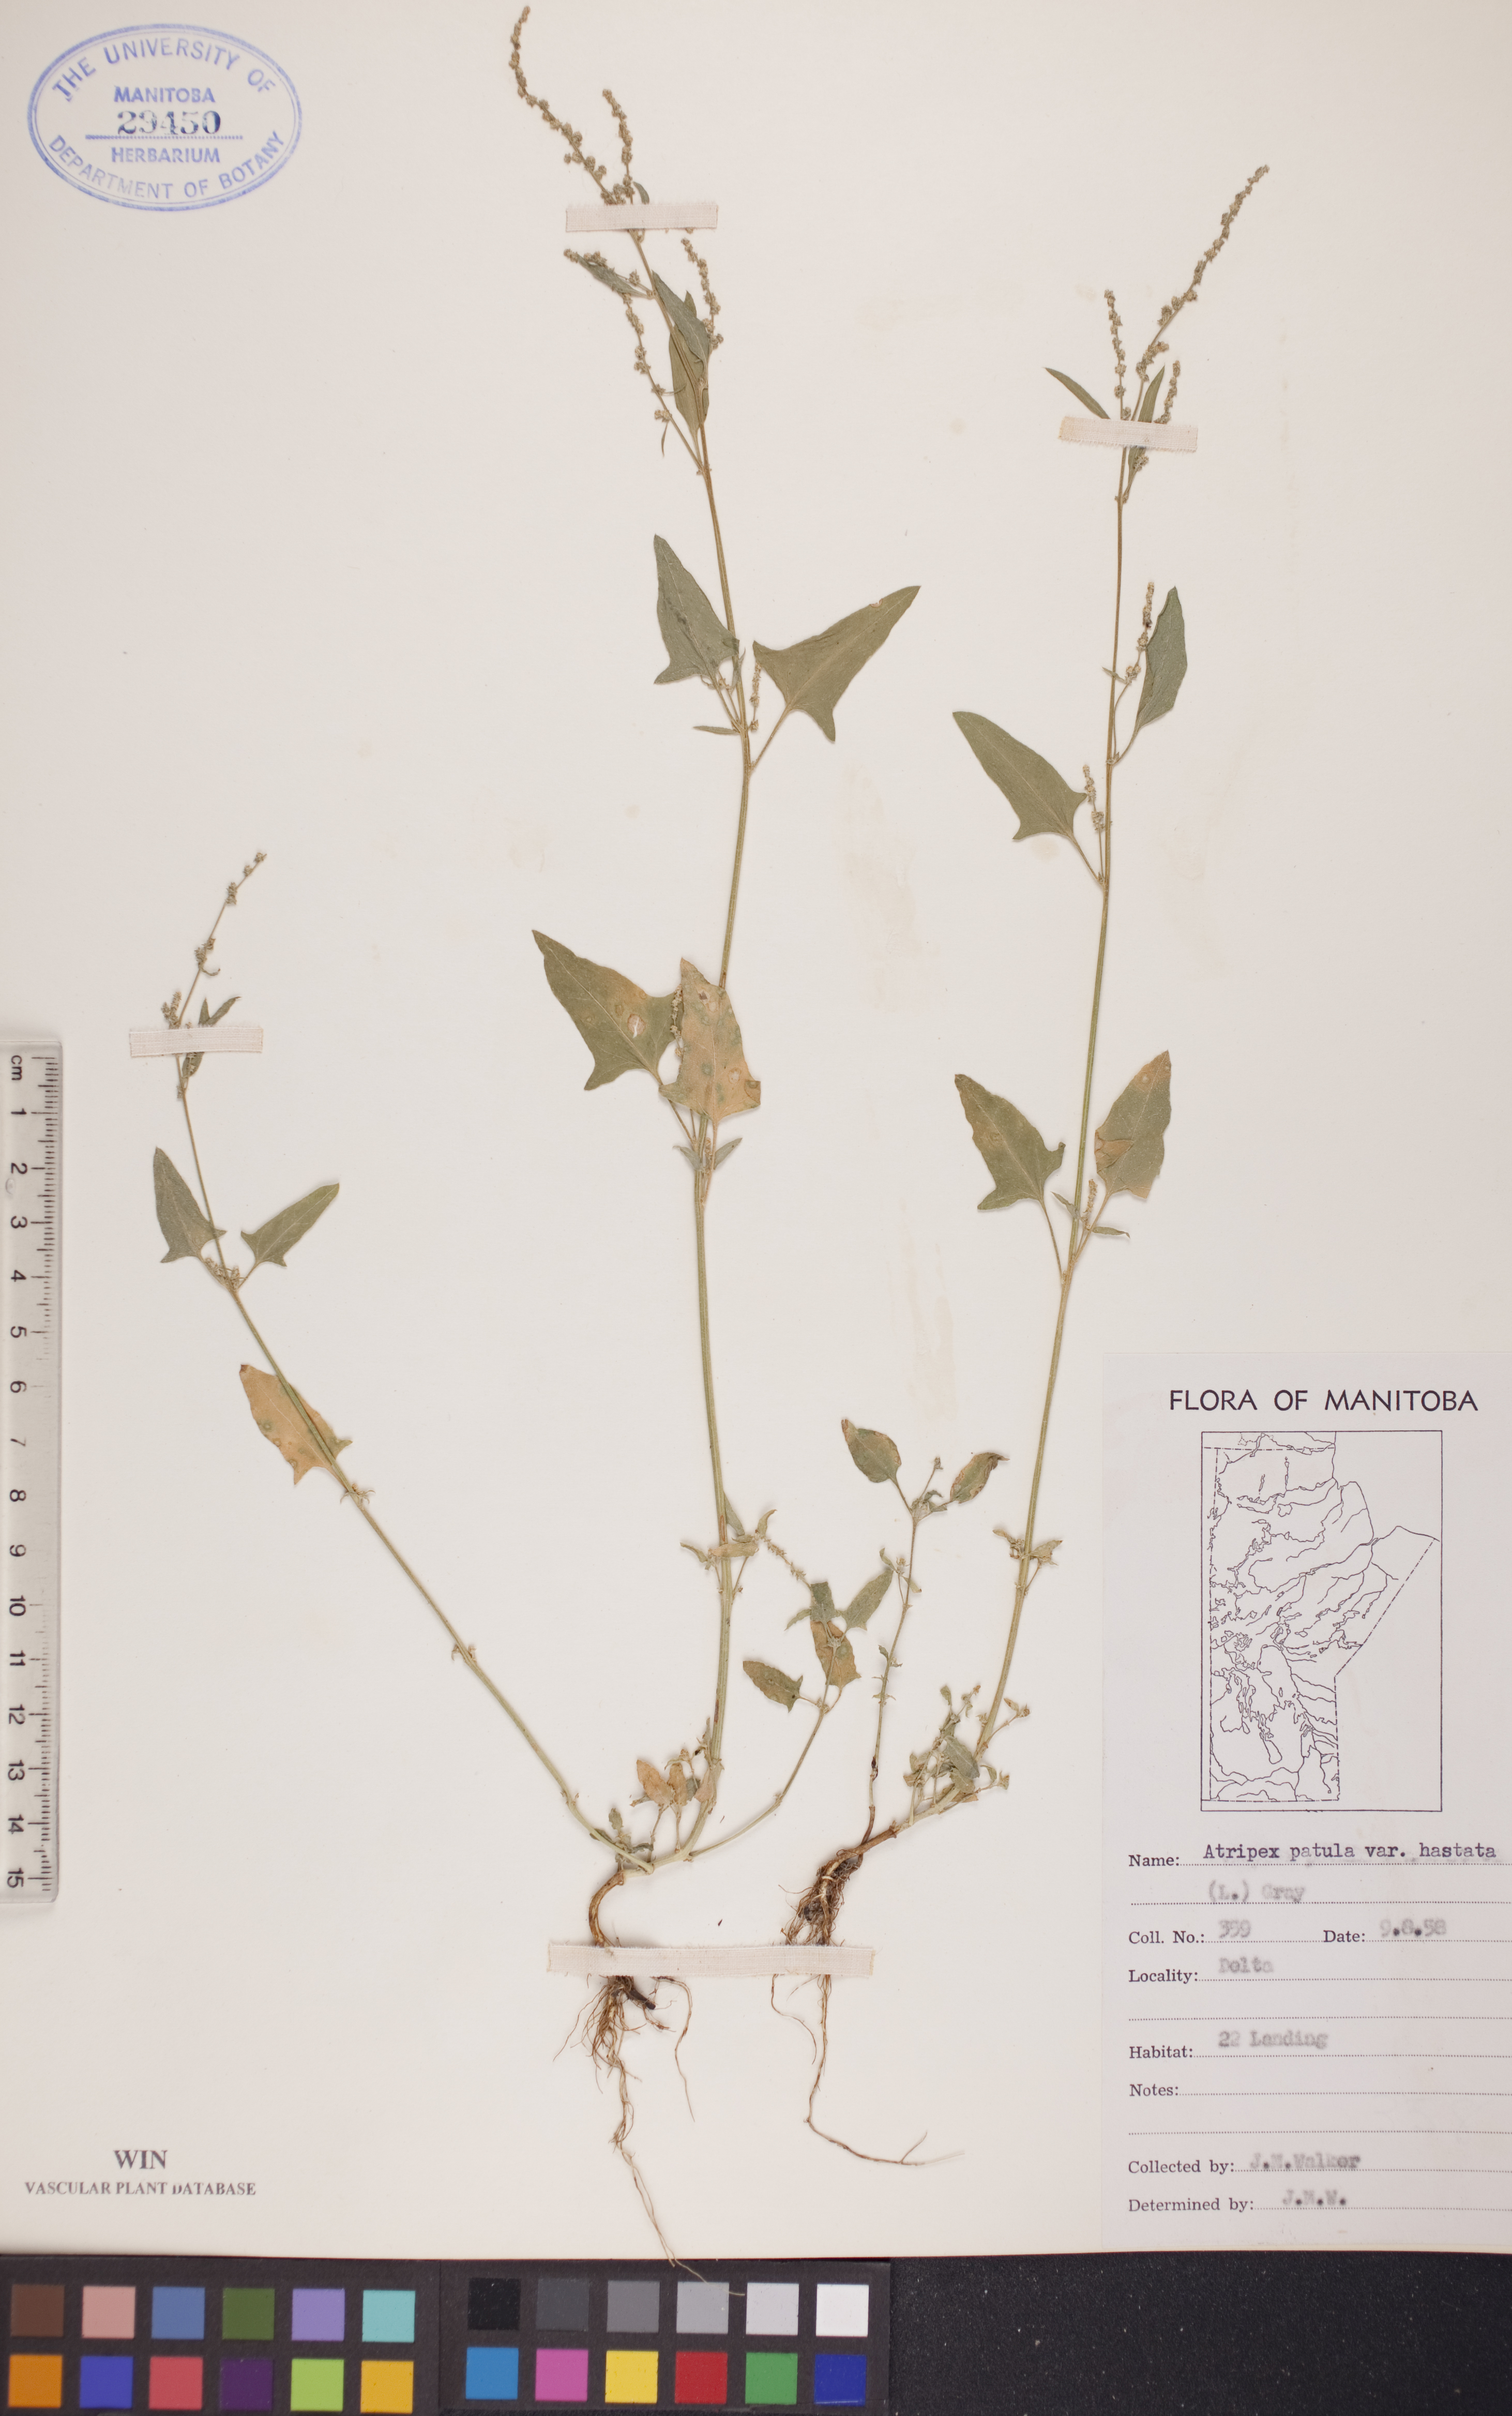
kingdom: Plantae
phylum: Tracheophyta
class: Magnoliopsida
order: Caryophyllales
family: Amaranthaceae
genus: Atriplex
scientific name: Atriplex
